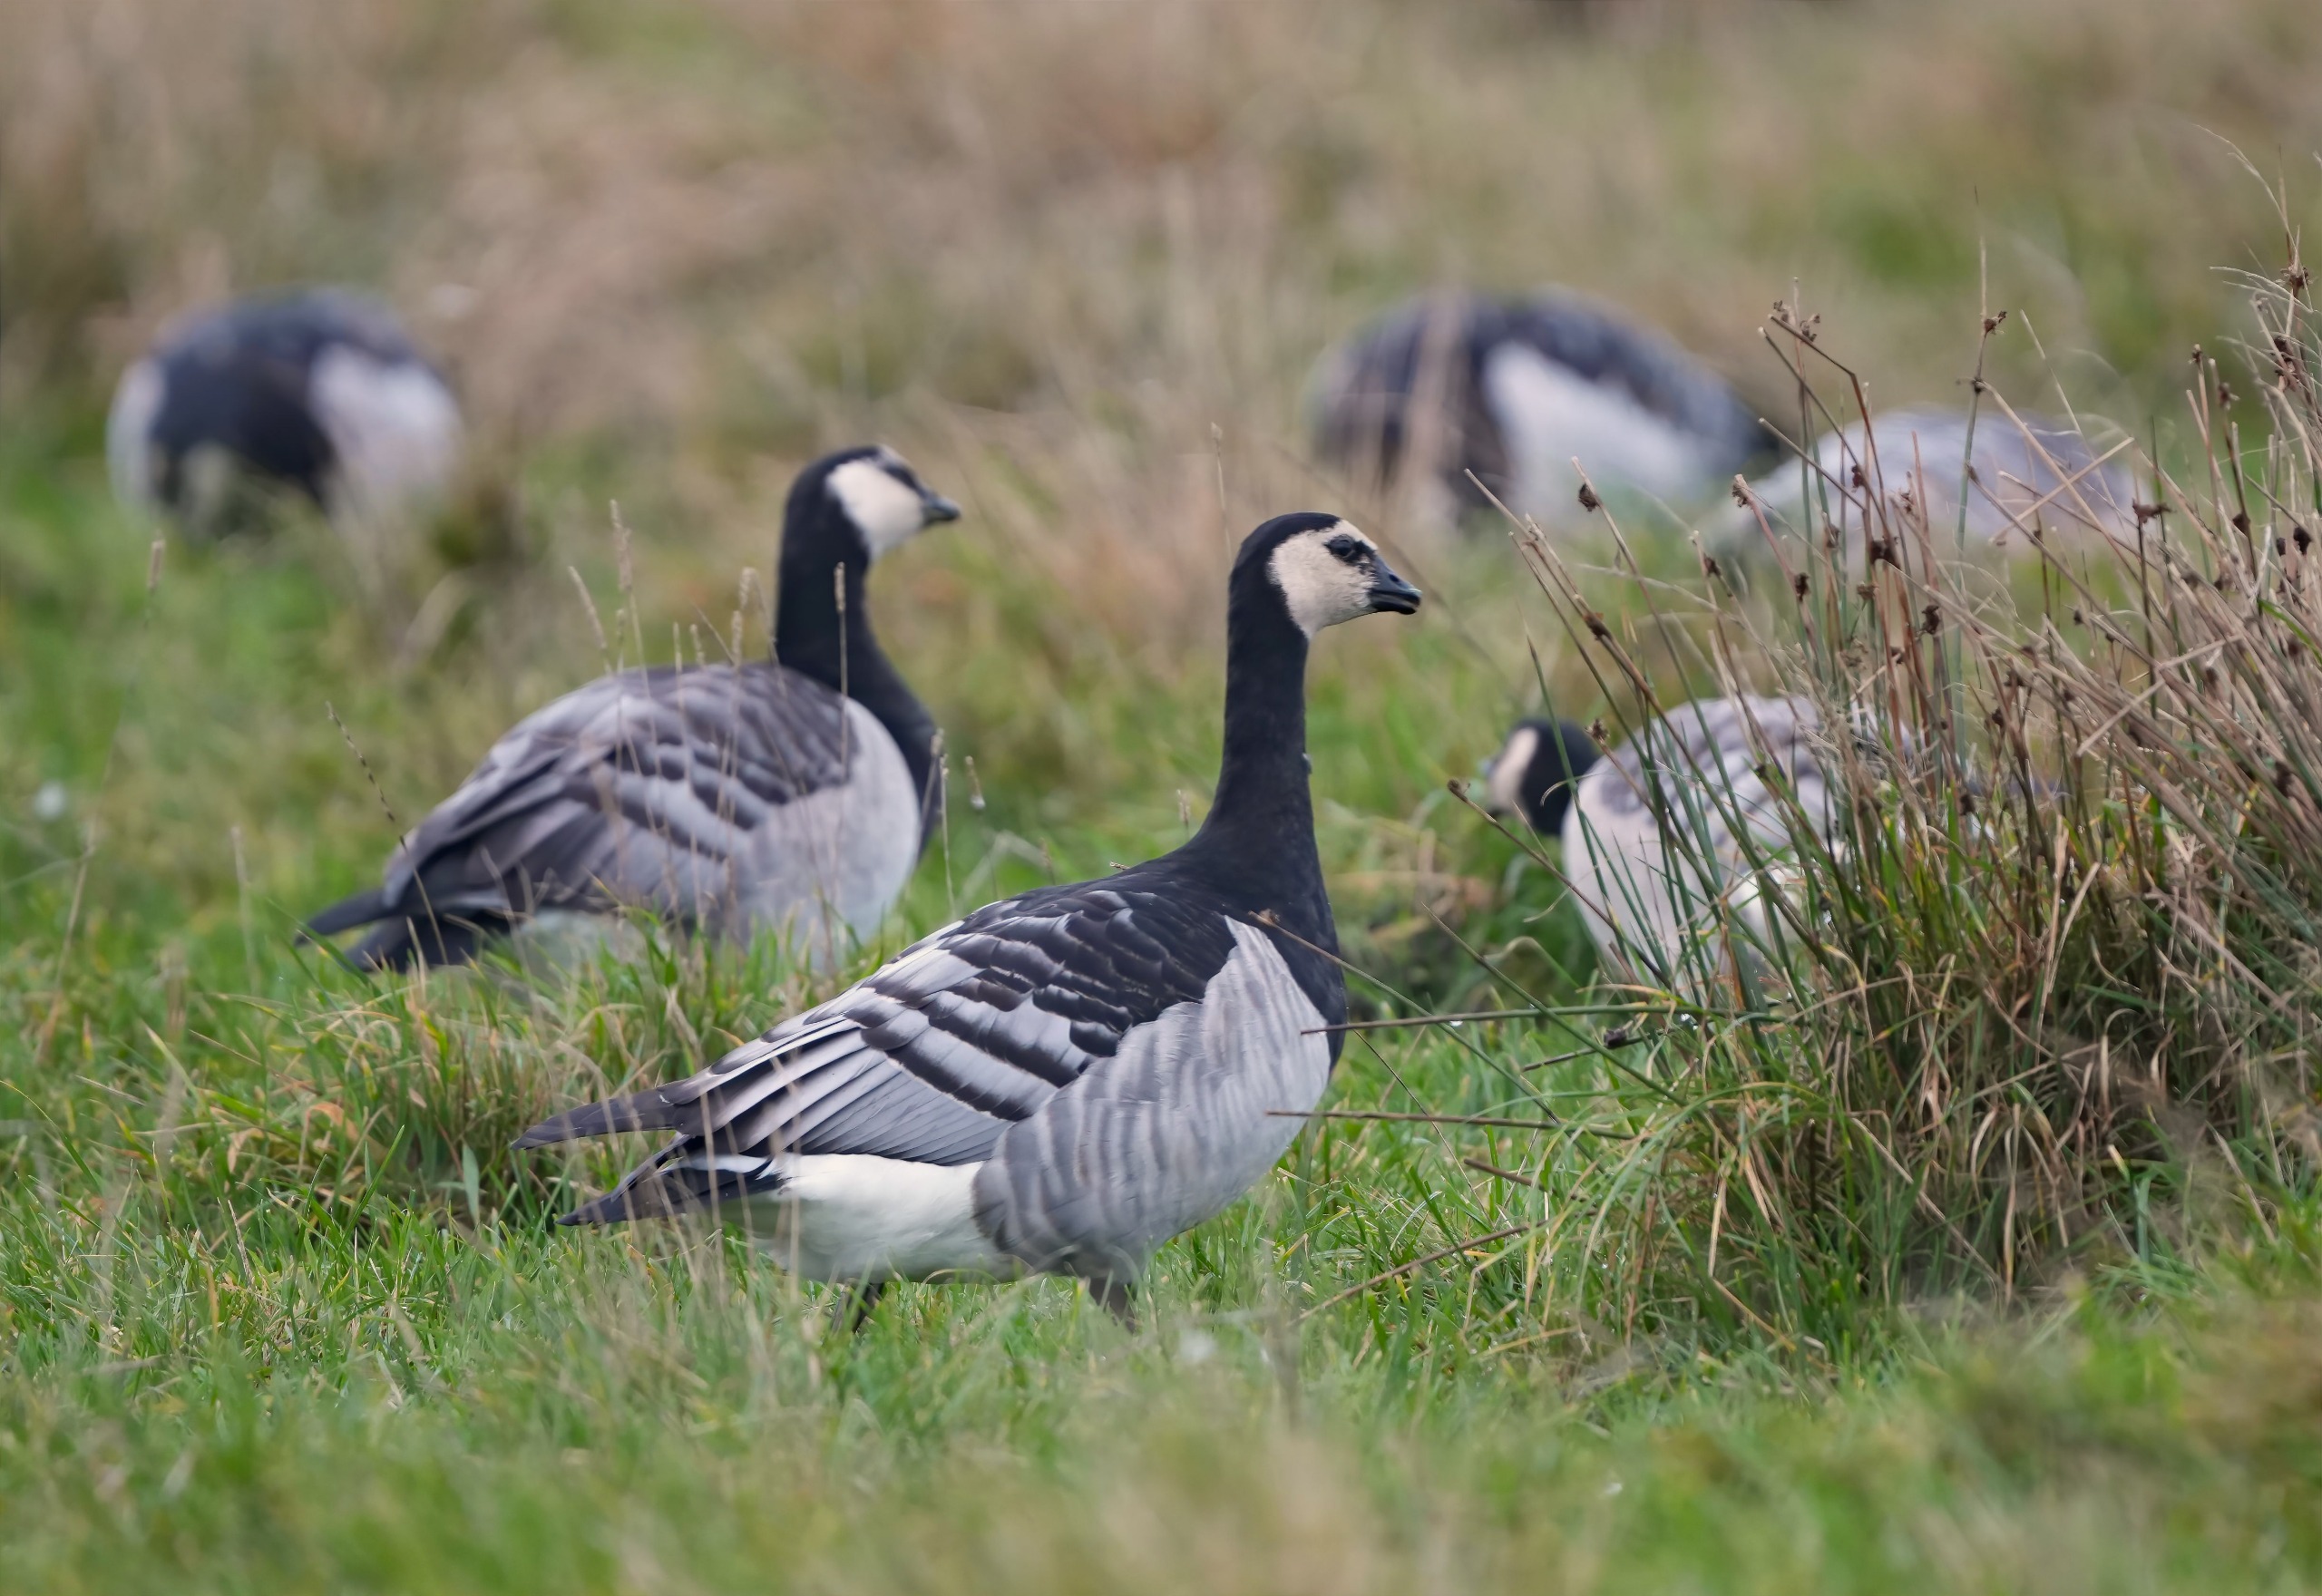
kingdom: Animalia
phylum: Chordata
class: Aves
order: Anseriformes
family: Anatidae
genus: Branta
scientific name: Branta leucopsis
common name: Bramgås
